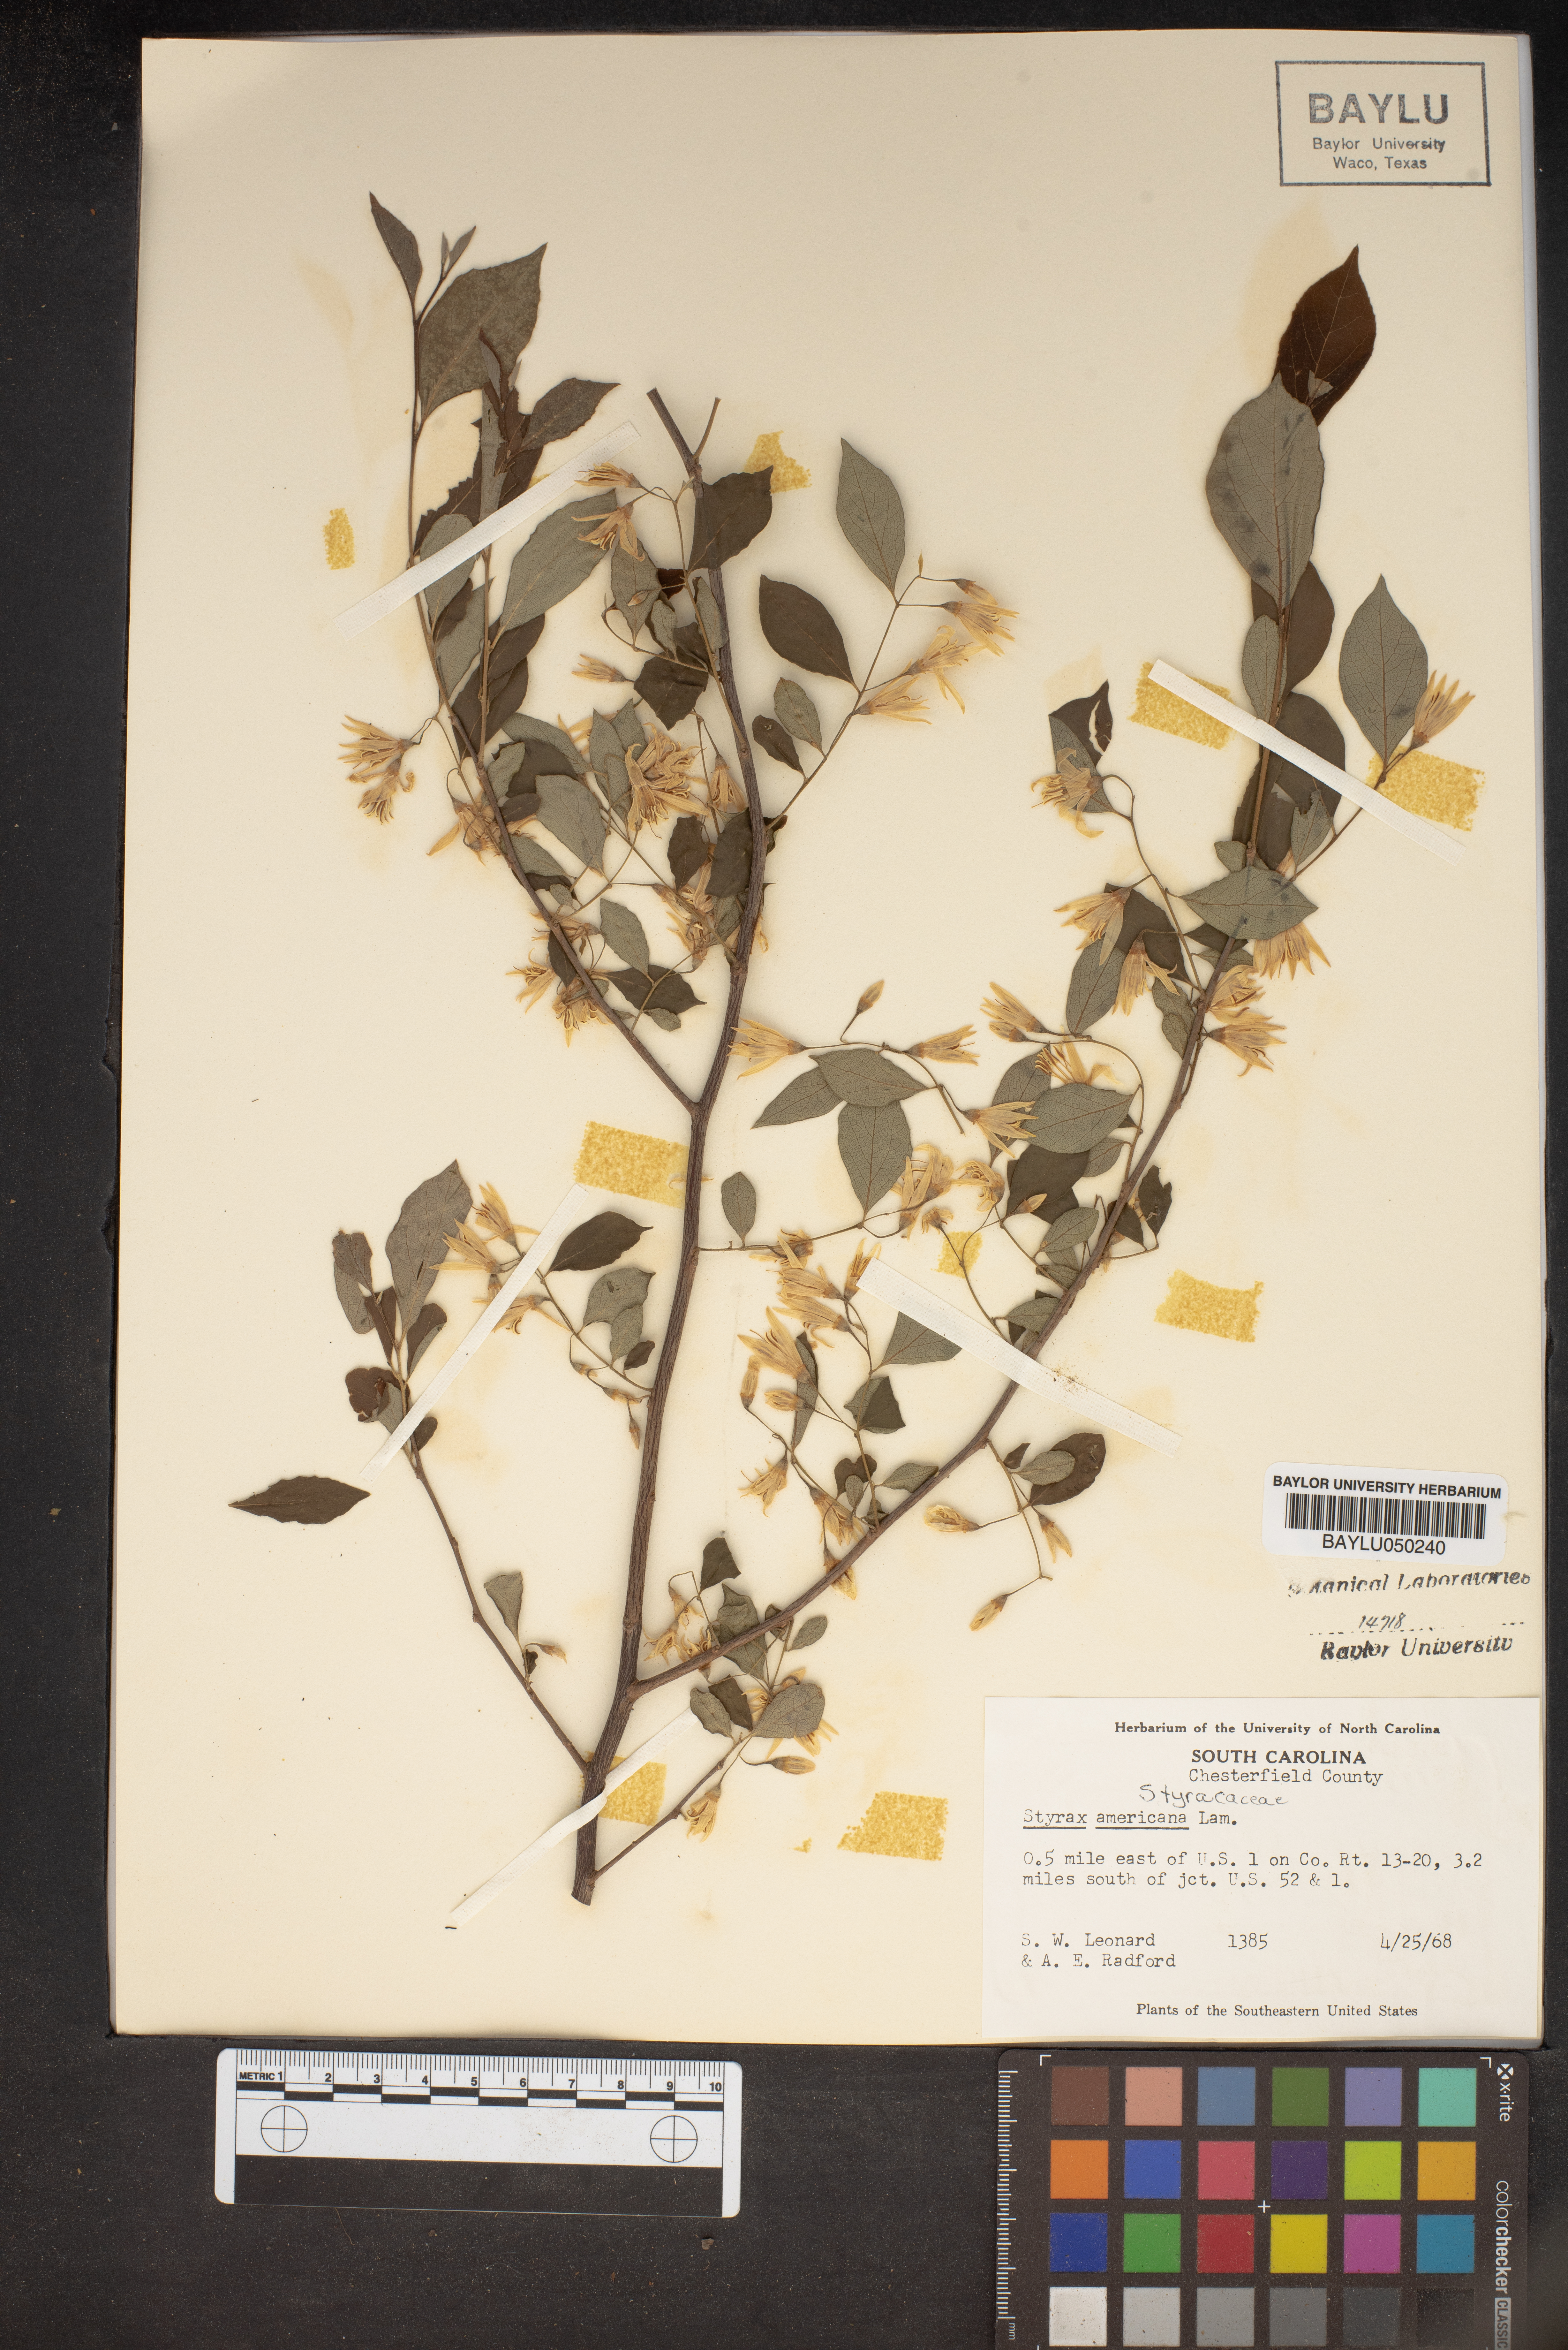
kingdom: Plantae
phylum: Tracheophyta
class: Magnoliopsida
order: Ericales
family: Styracaceae
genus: Styrax
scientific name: Styrax americanus
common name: American snowbell
